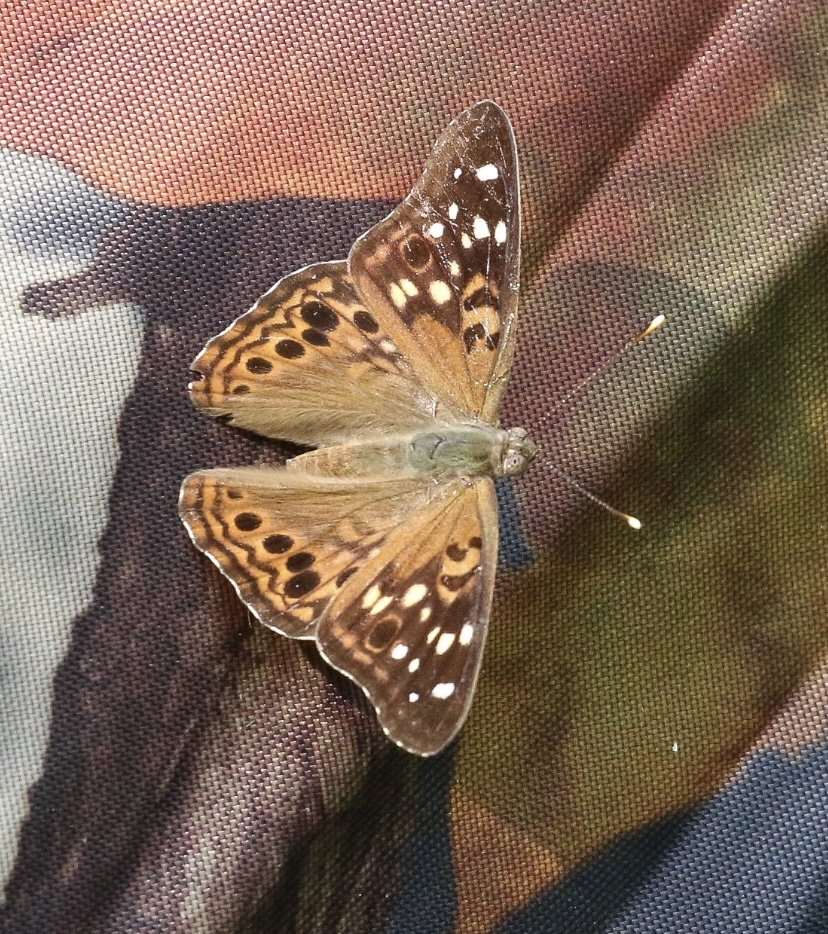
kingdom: Animalia
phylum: Arthropoda
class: Insecta
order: Lepidoptera
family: Nymphalidae
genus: Asterocampa
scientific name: Asterocampa celtis
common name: Hackberry Emperor
